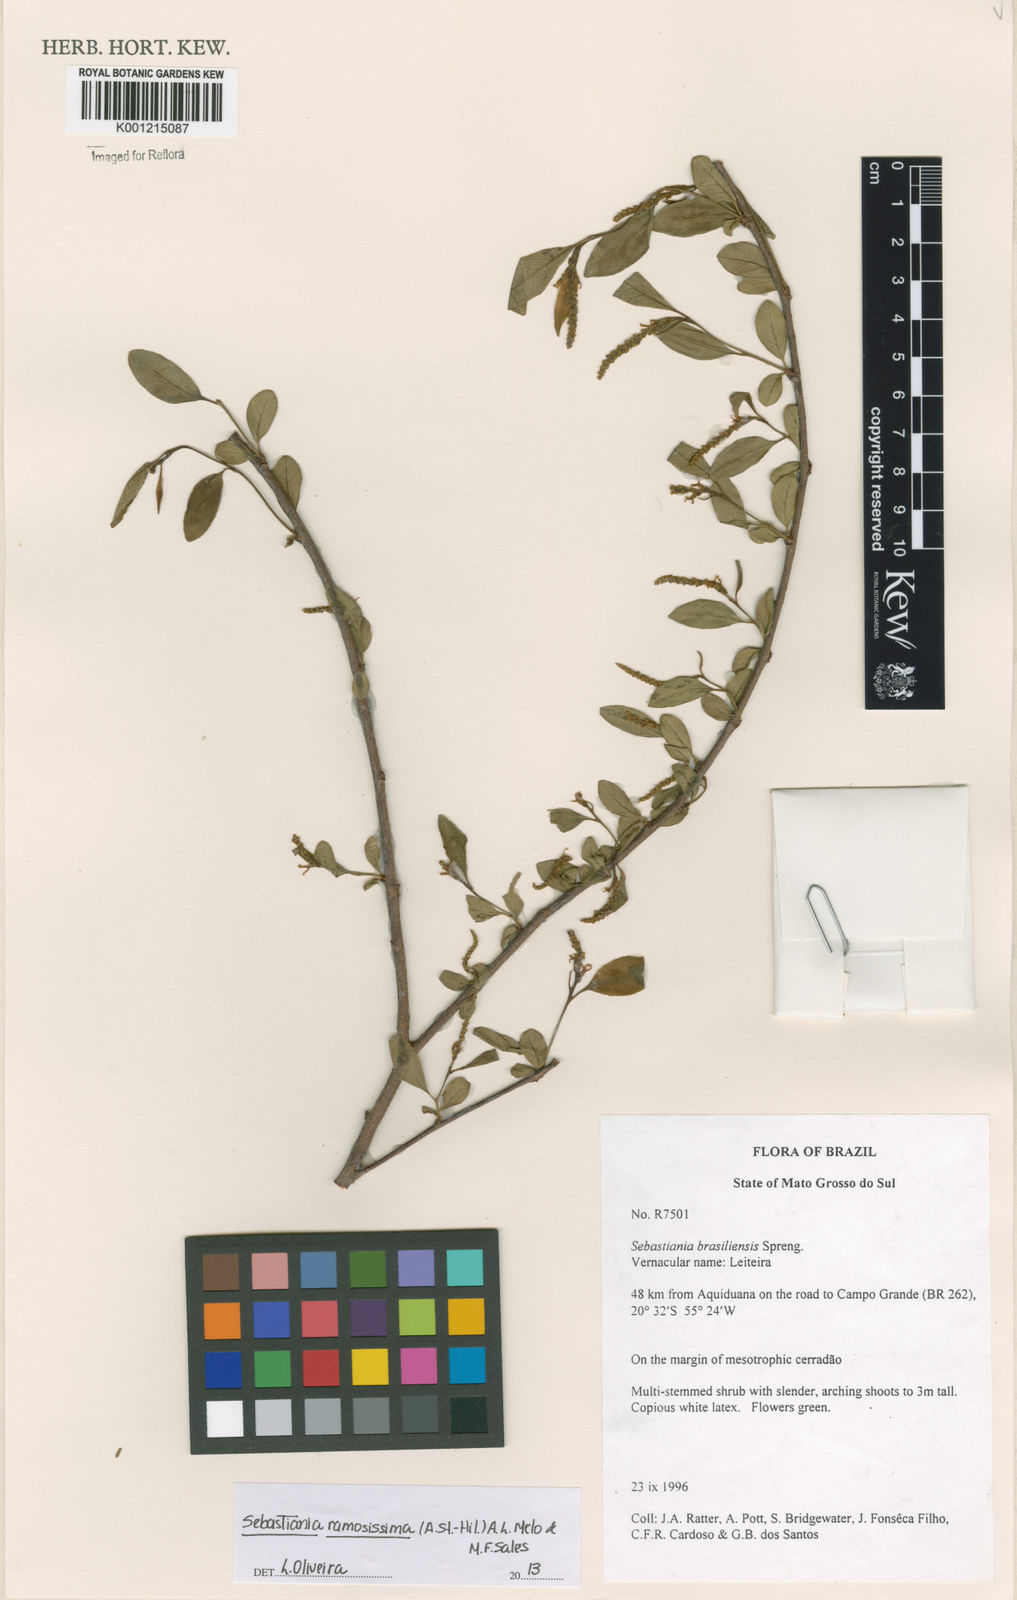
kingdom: Plantae
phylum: Tracheophyta
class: Magnoliopsida
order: Malpighiales
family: Euphorbiaceae
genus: Sebastiania
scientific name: Sebastiania
